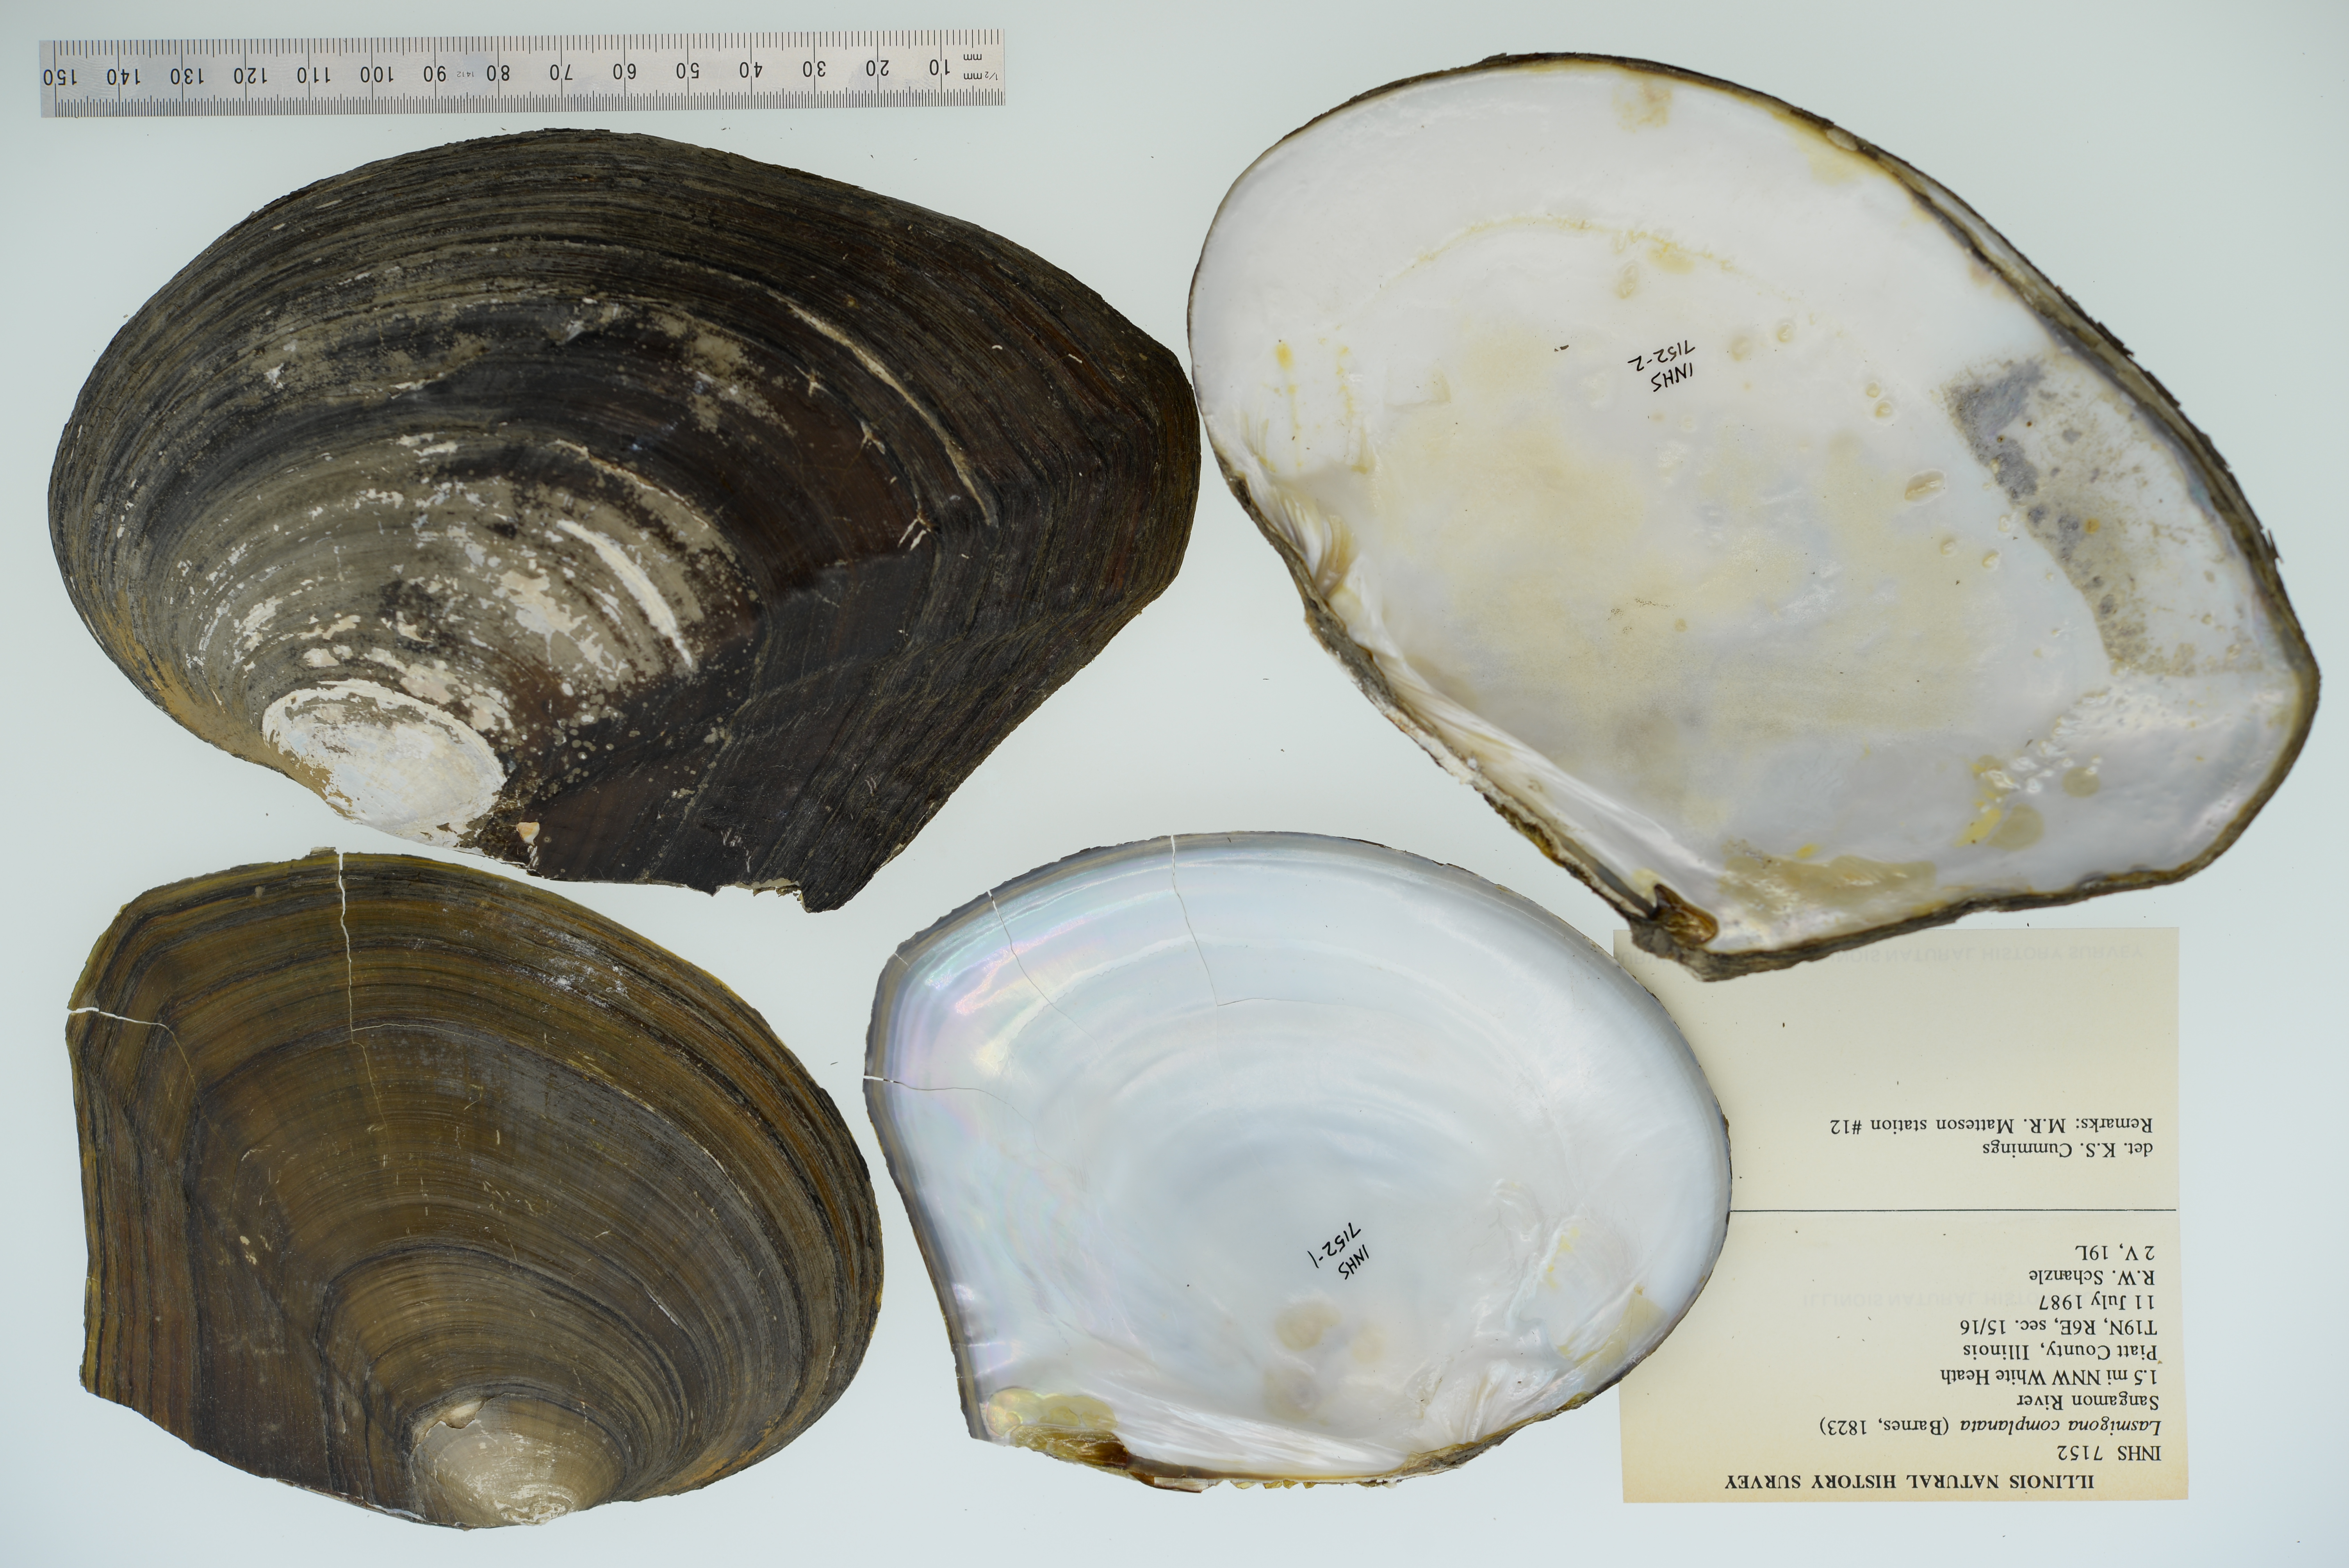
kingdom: Animalia
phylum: Mollusca
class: Bivalvia
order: Unionida
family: Unionidae
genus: Lasmigona
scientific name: Lasmigona complanata
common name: White heelsplitter
